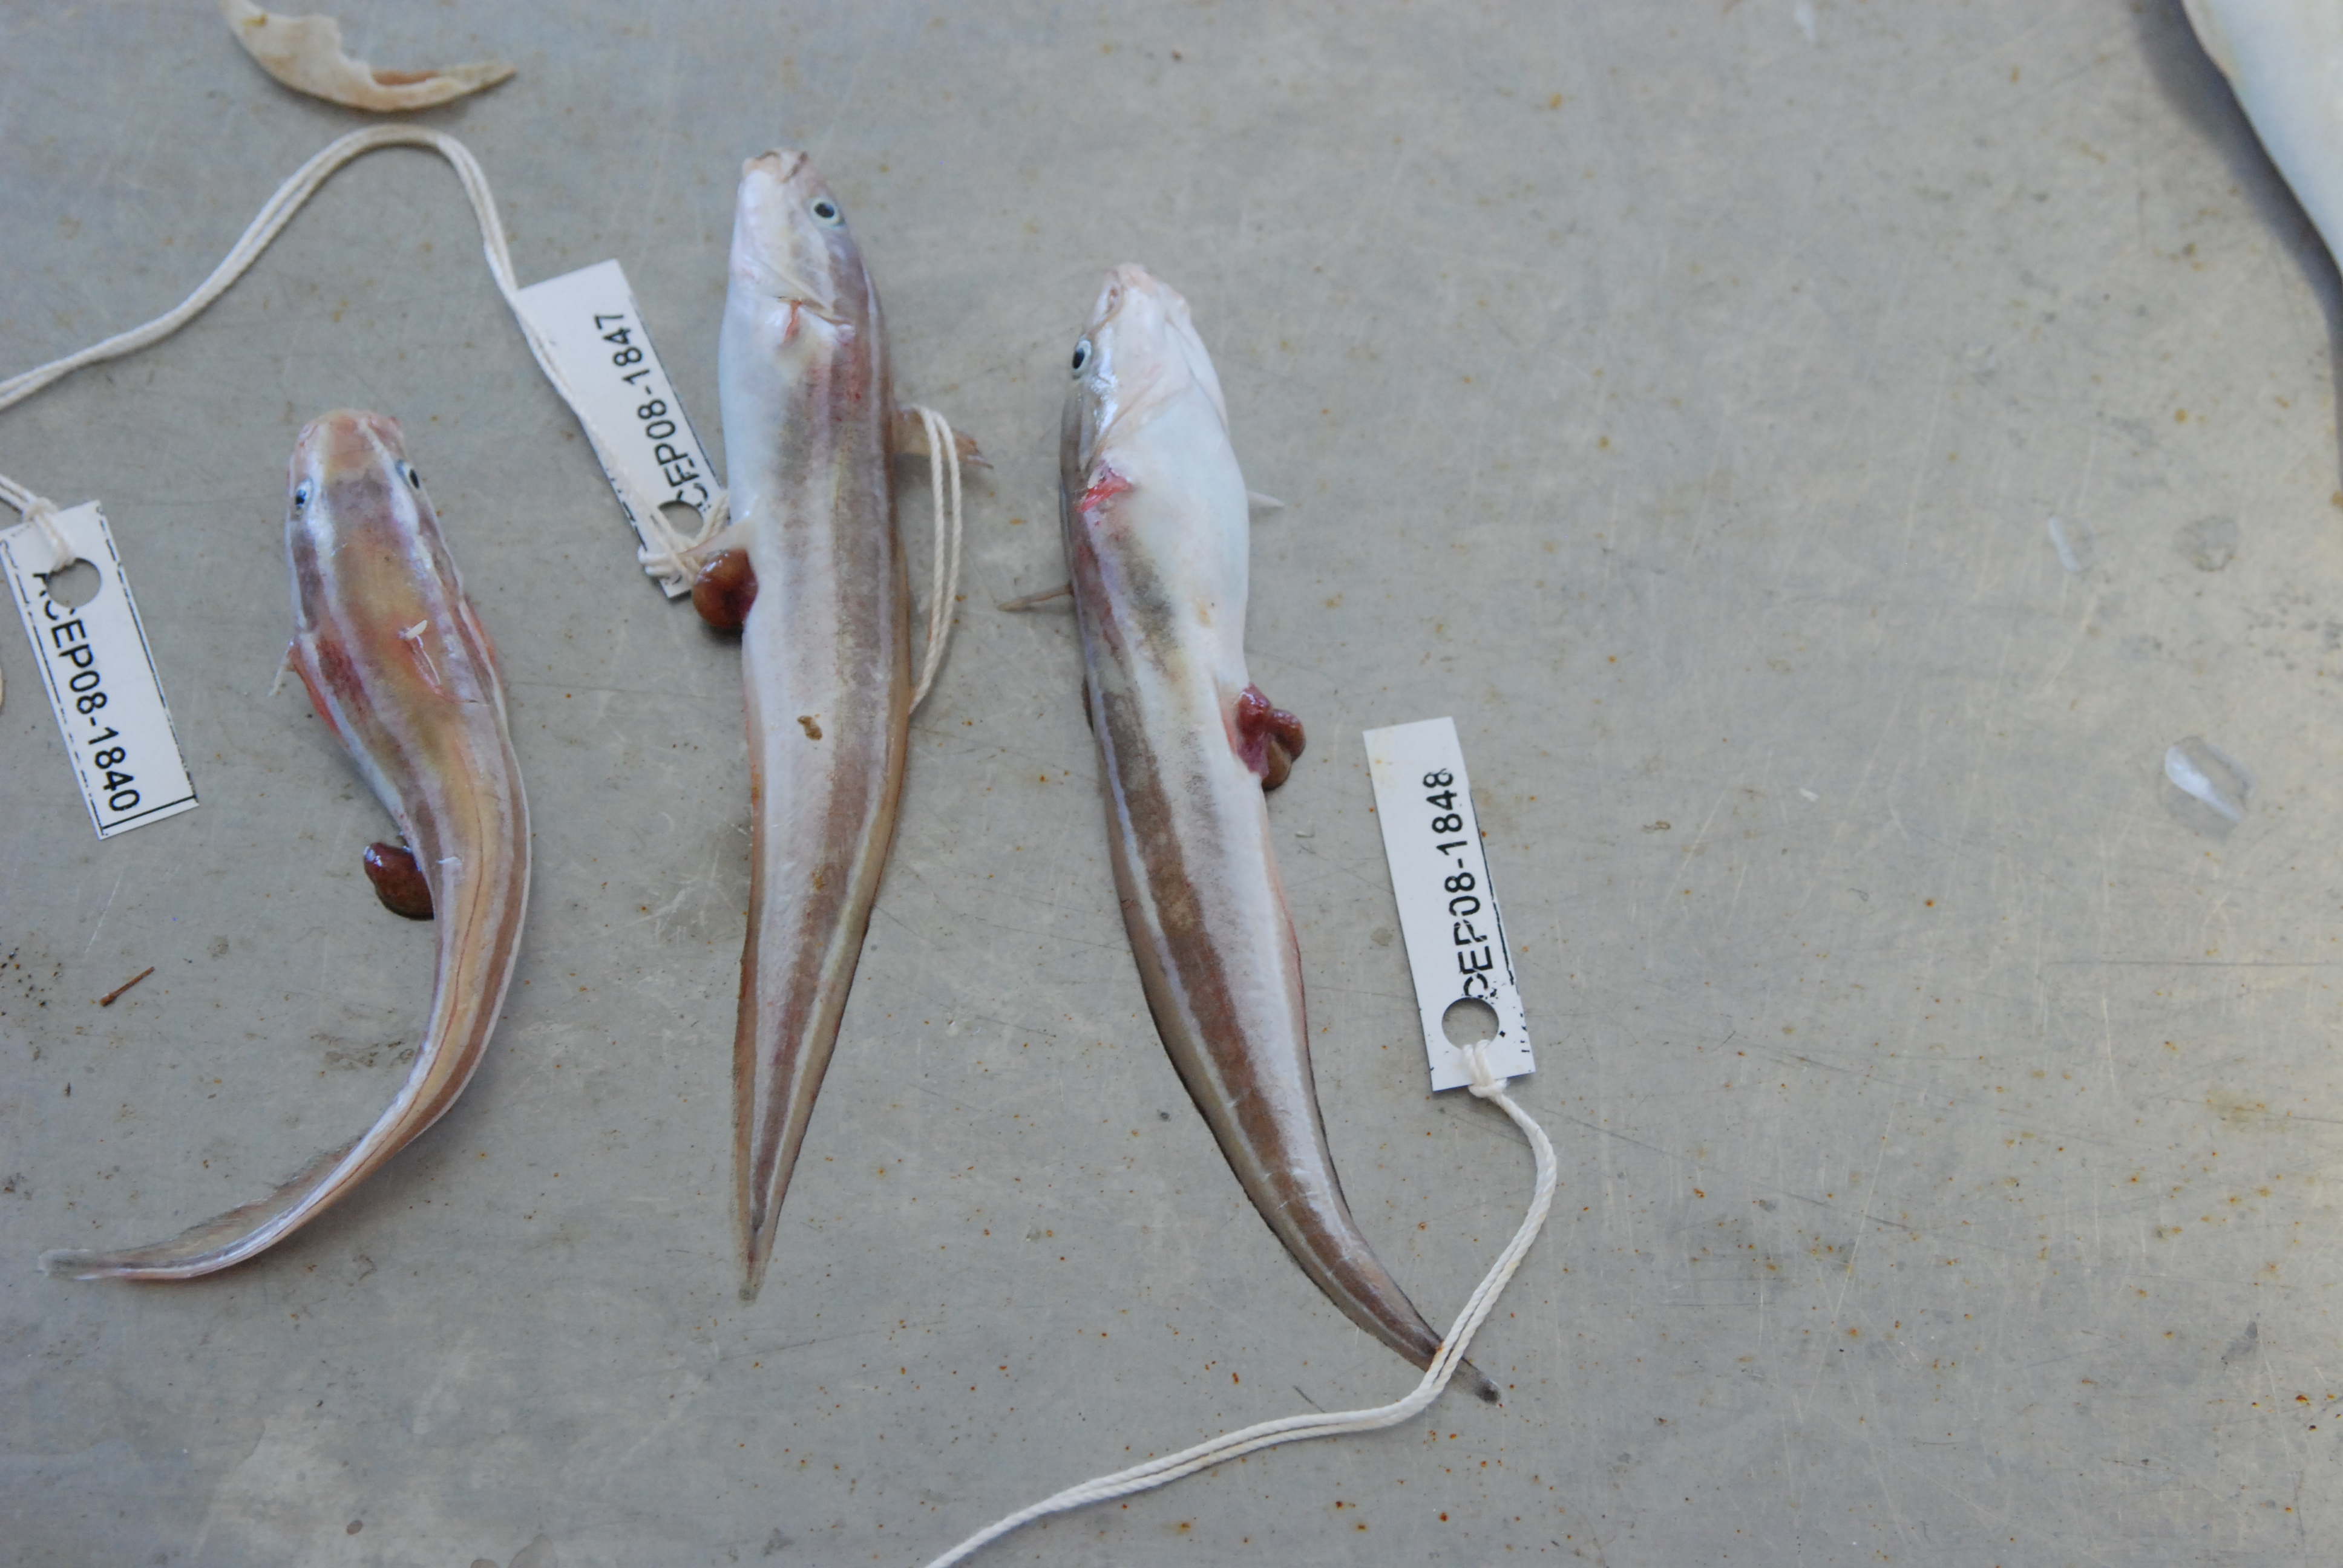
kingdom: Animalia
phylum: Chordata
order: Siluriformes
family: Plotosidae
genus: Plotosus
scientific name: Plotosus lineatus
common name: Striped eel catfish
